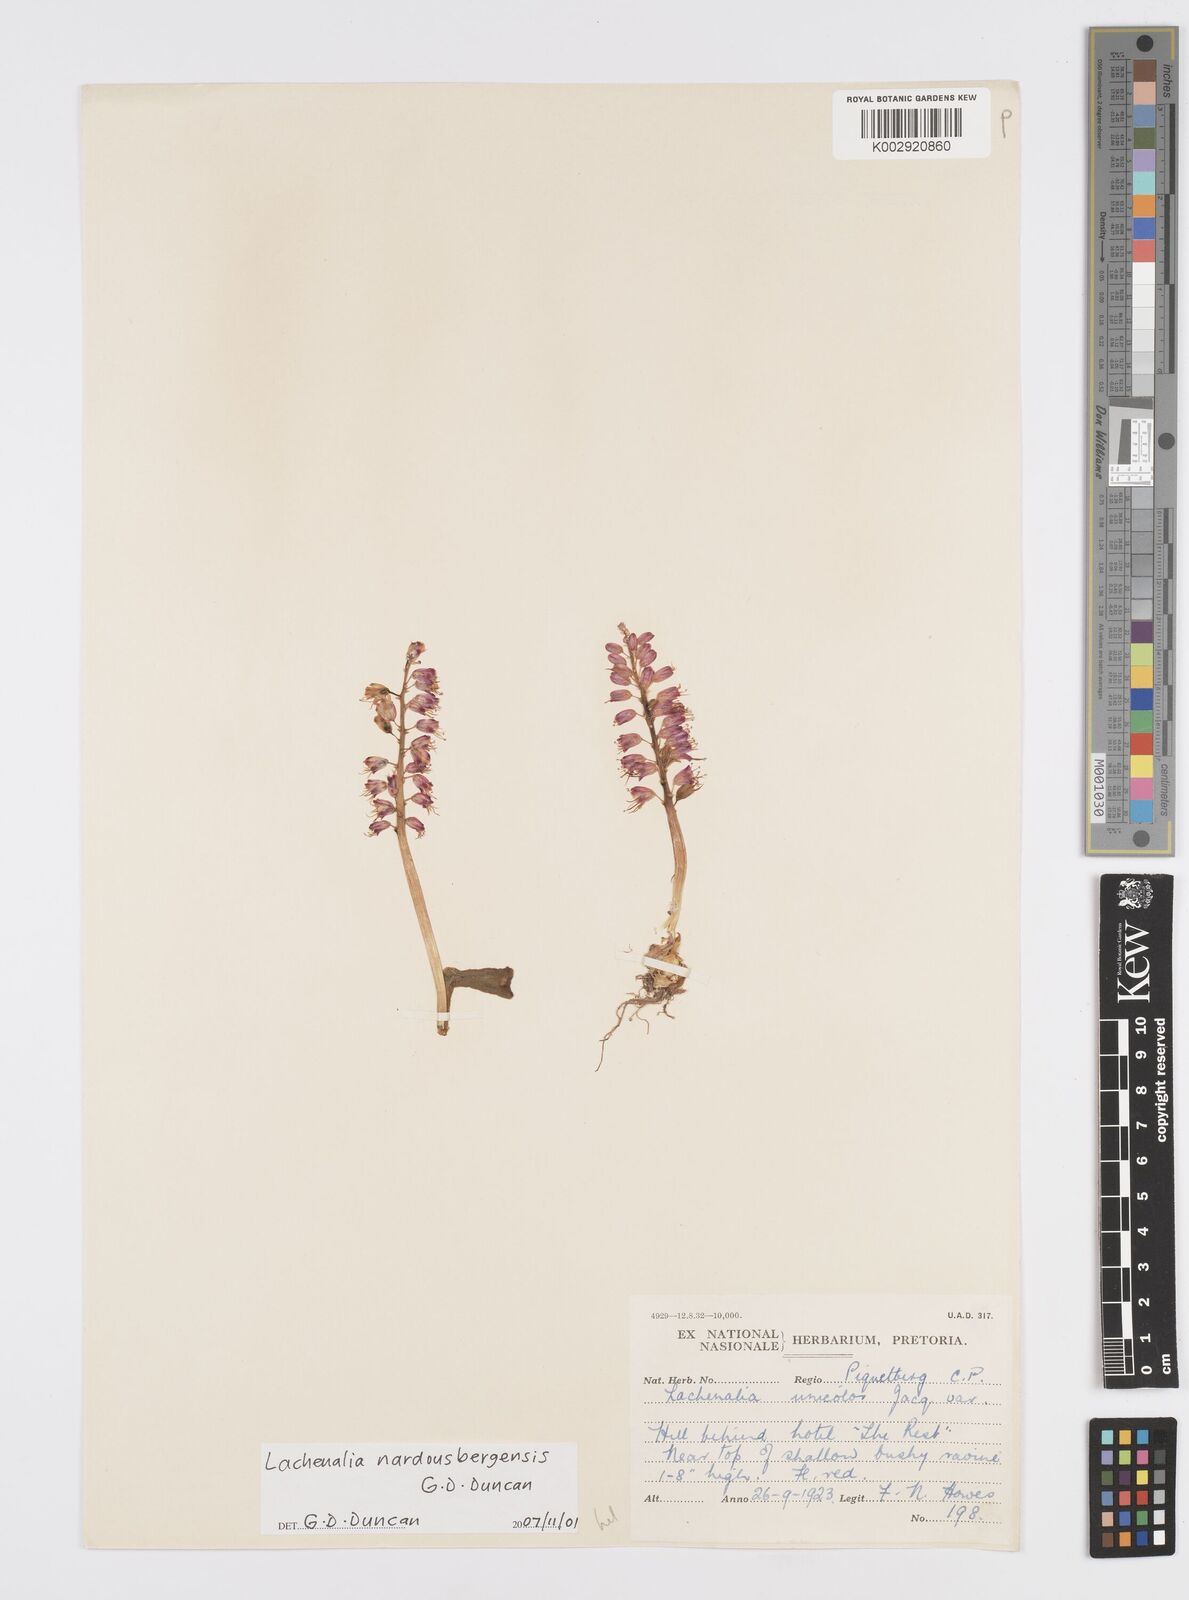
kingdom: Plantae
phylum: Tracheophyta
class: Liliopsida
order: Asparagales
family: Asparagaceae
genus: Lachenalia
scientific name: Lachenalia nardousbergensis
